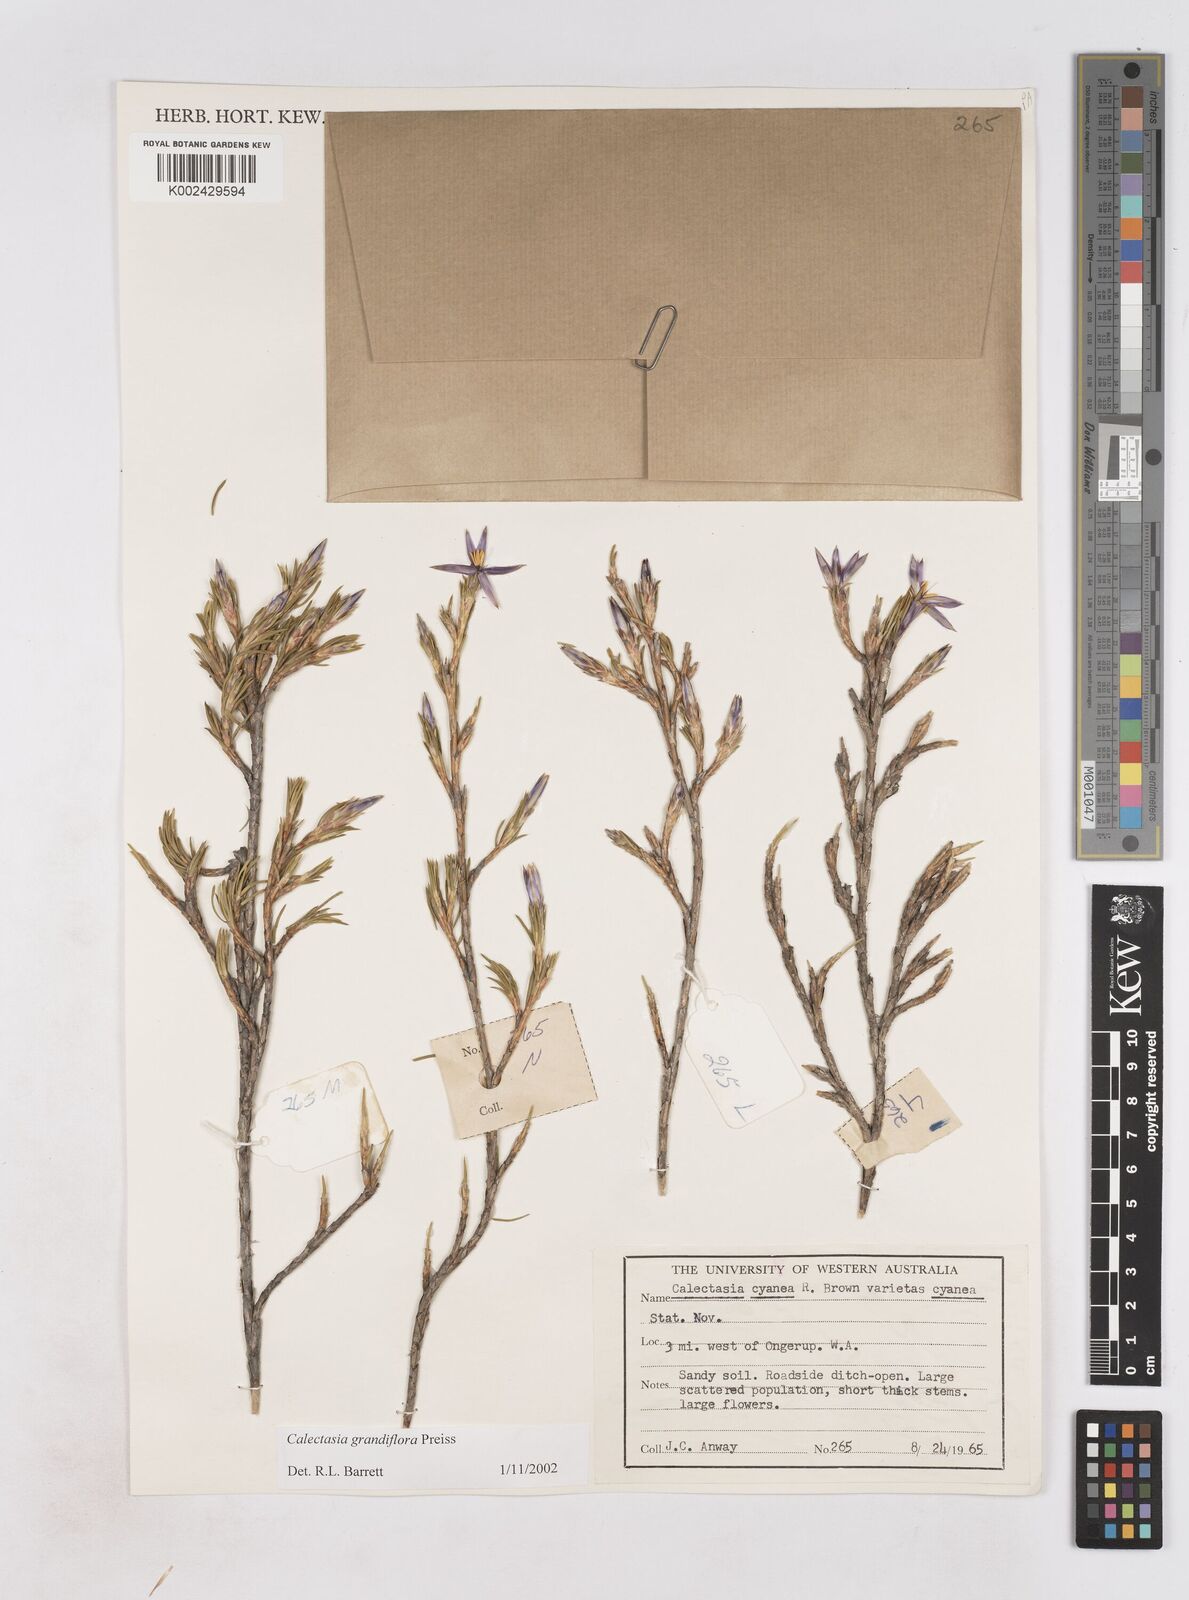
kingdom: Plantae
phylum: Tracheophyta
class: Liliopsida
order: Arecales
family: Dasypogonaceae
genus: Calectasia
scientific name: Calectasia grandiflora
